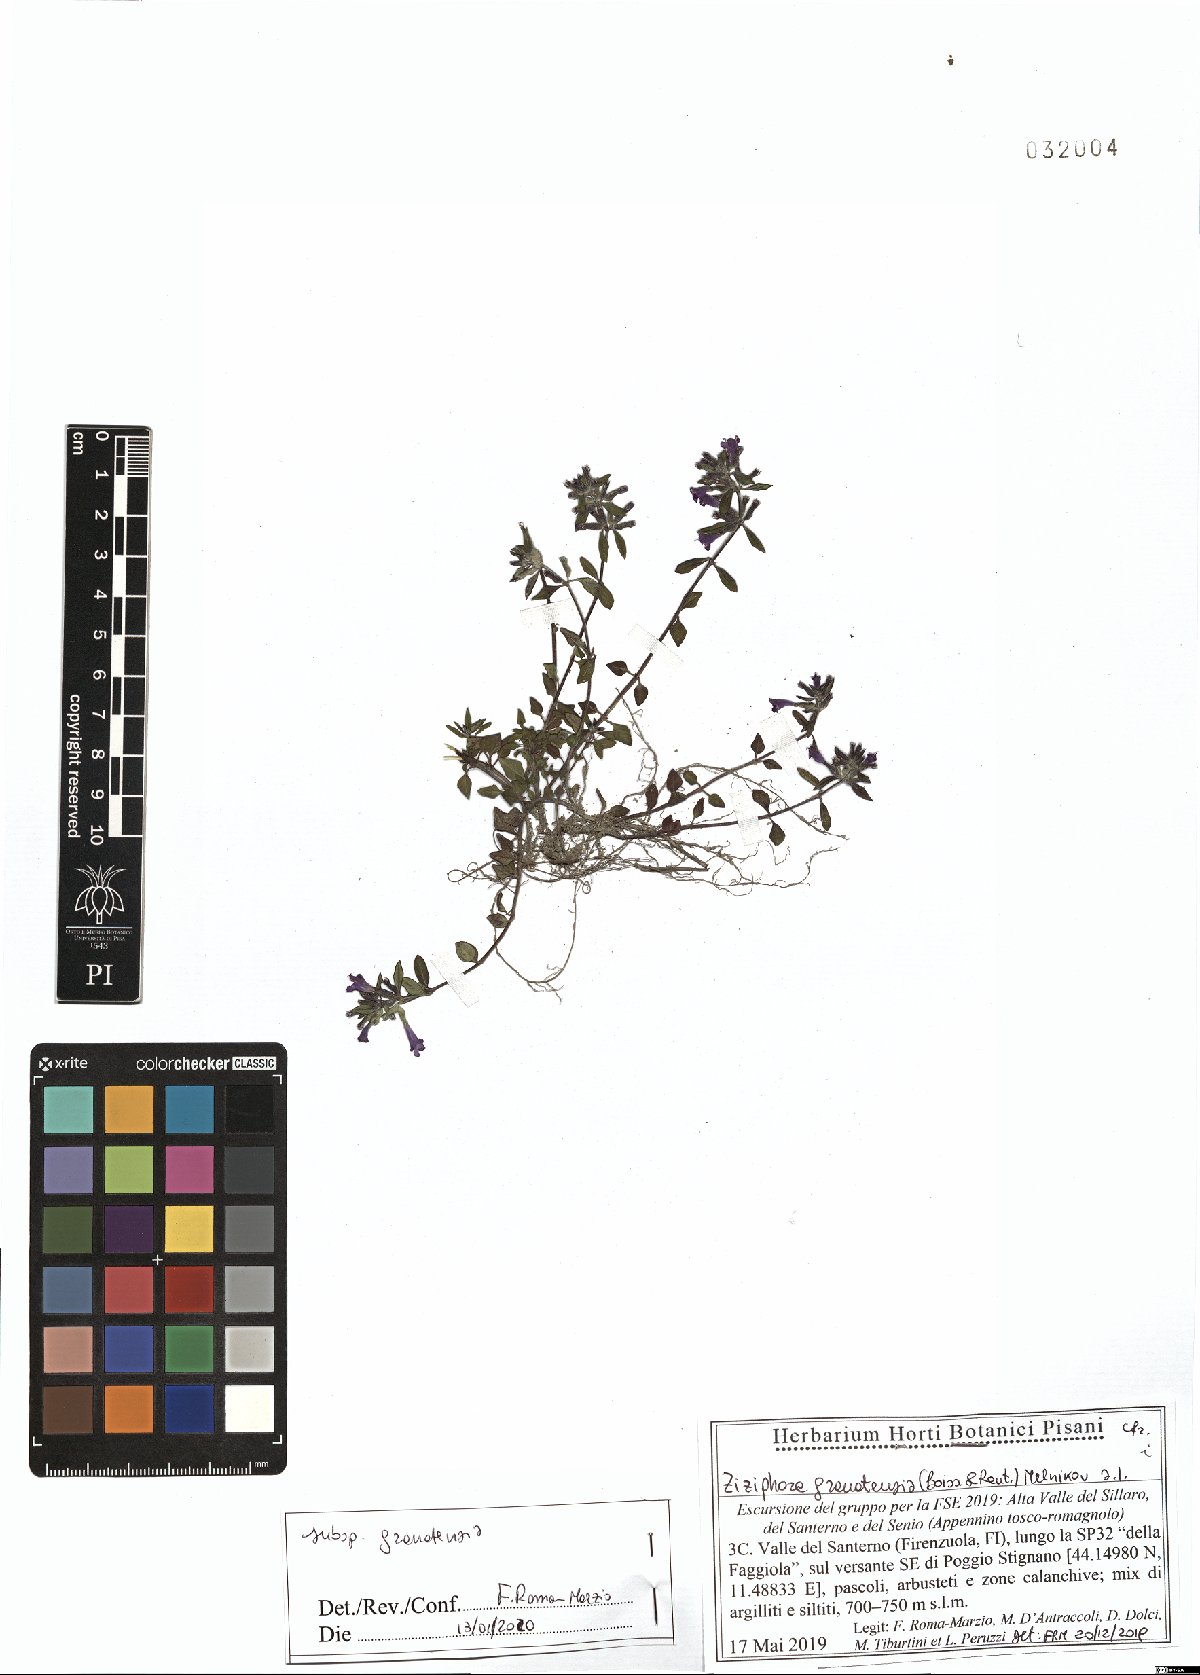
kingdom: Plantae
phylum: Tracheophyta
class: Magnoliopsida
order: Lamiales
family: Lamiaceae
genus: Clinopodium
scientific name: Clinopodium alpinum
